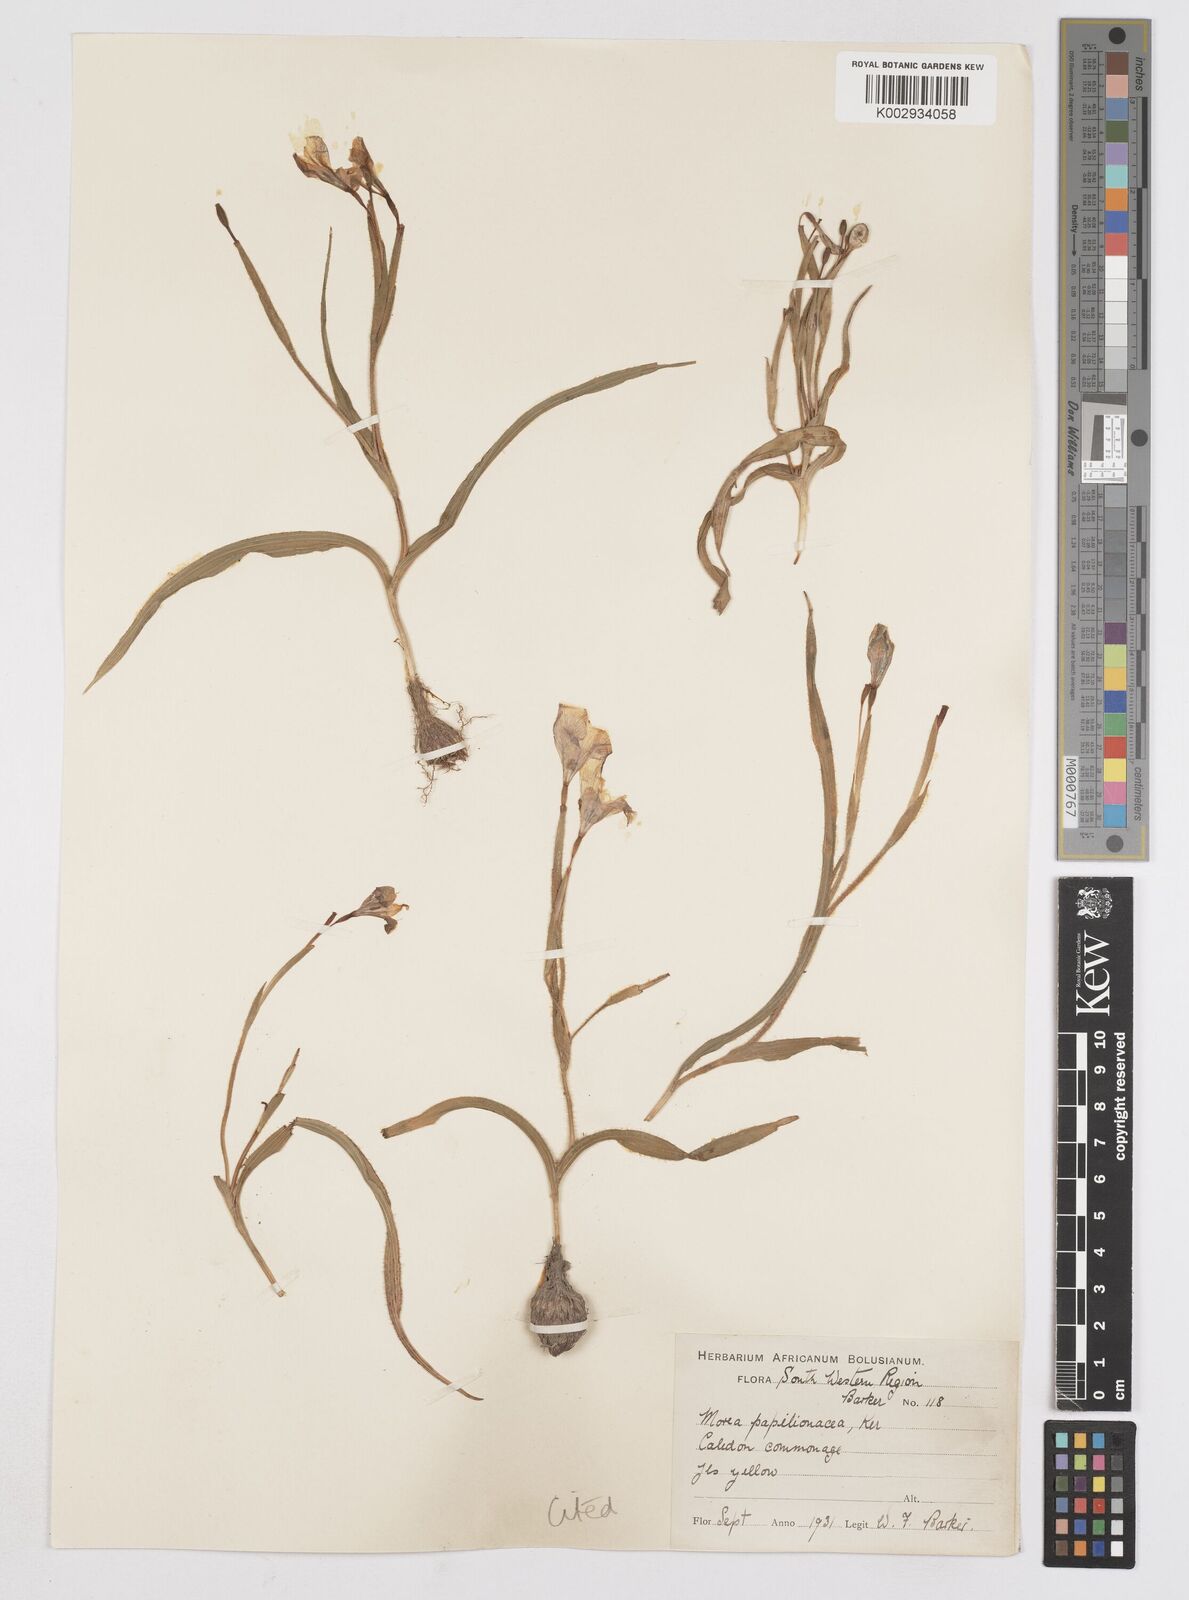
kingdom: Plantae
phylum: Tracheophyta
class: Liliopsida
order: Asparagales
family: Iridaceae
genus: Moraea
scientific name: Moraea papilionacea
